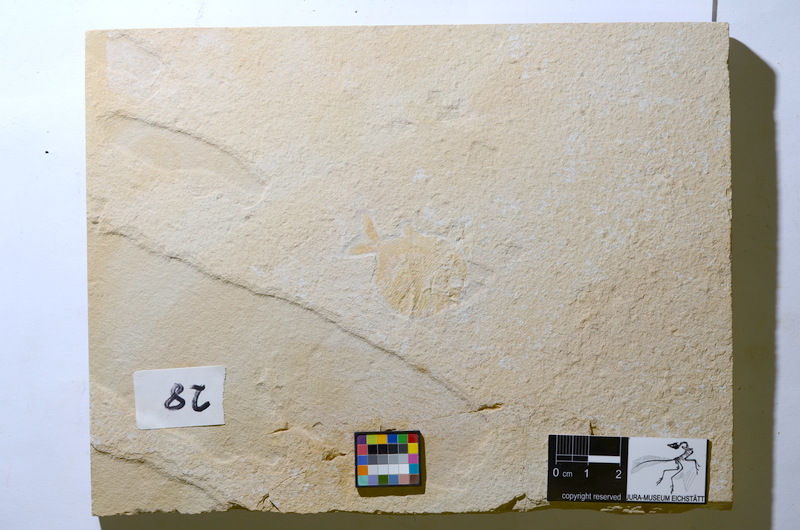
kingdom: Animalia
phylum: Chordata
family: Gyrodontidae
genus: Gyrodus
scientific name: Gyrodus hexagonus
